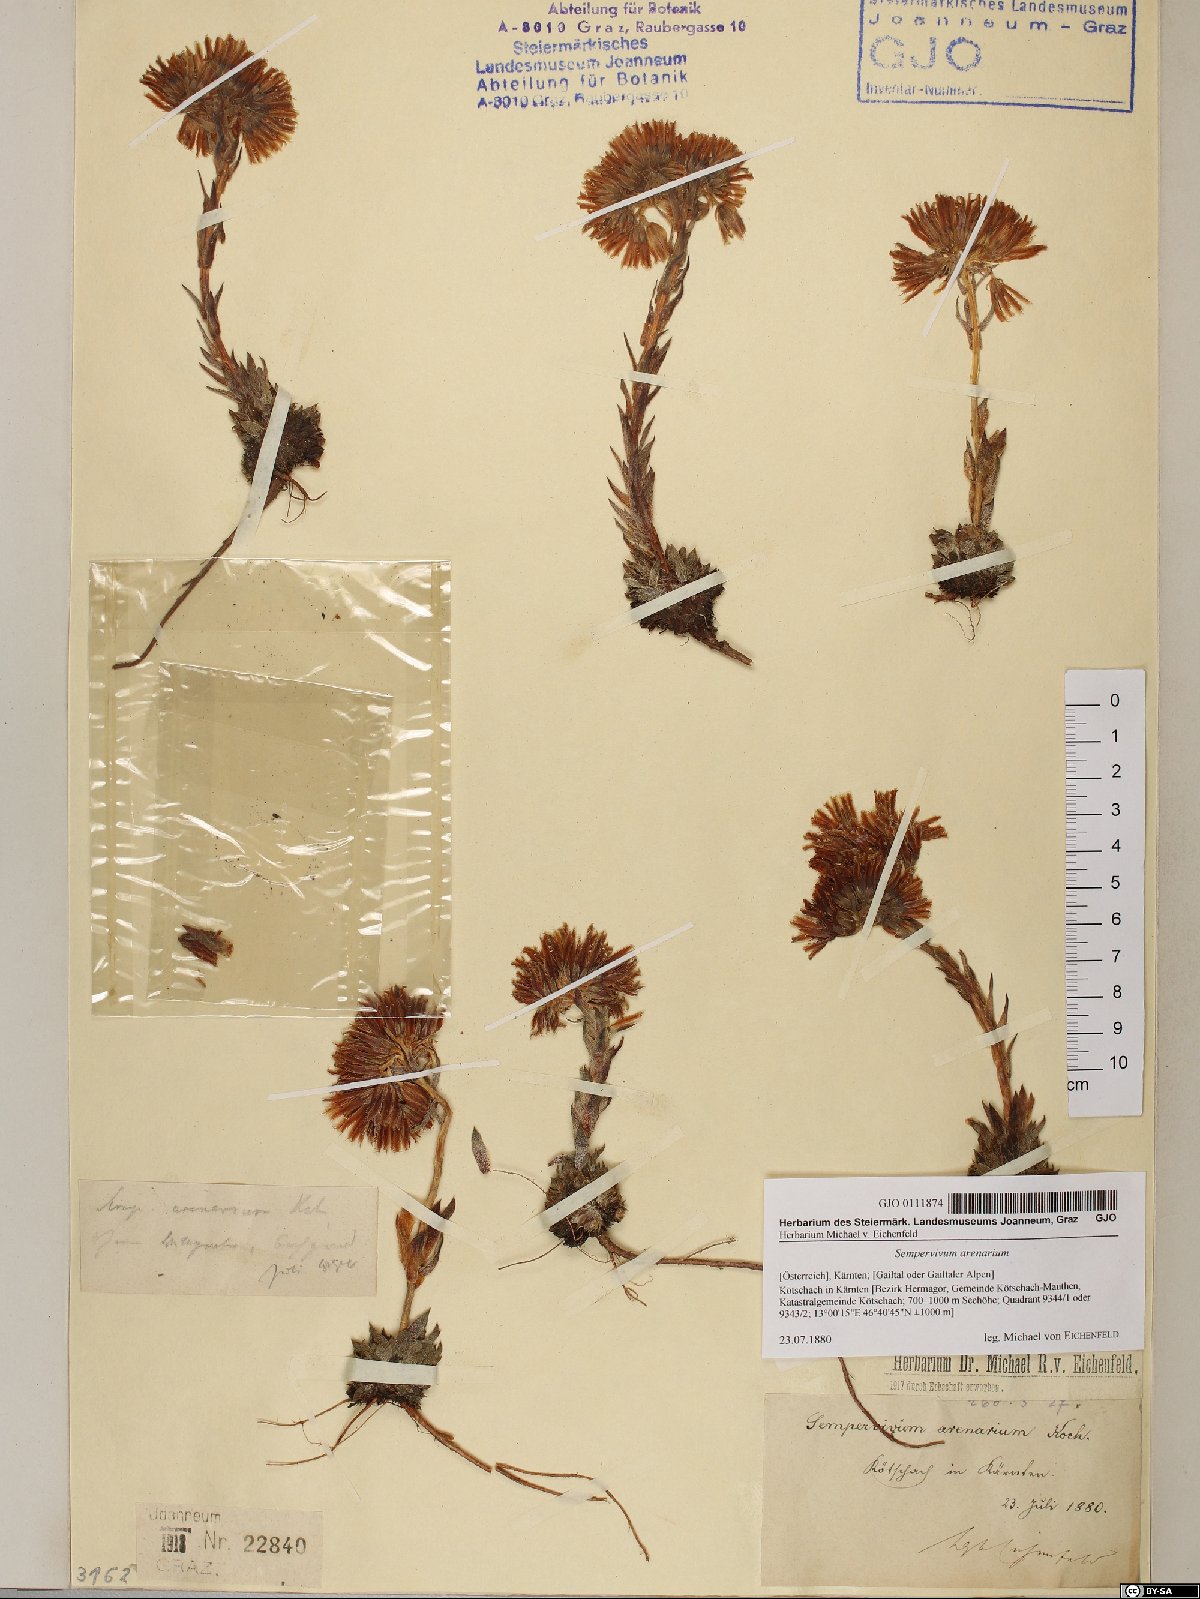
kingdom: Plantae
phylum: Tracheophyta
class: Magnoliopsida
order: Saxifragales
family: Crassulaceae
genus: Sempervivum
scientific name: Sempervivum globiferum
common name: Rolling hen-and-chicks
